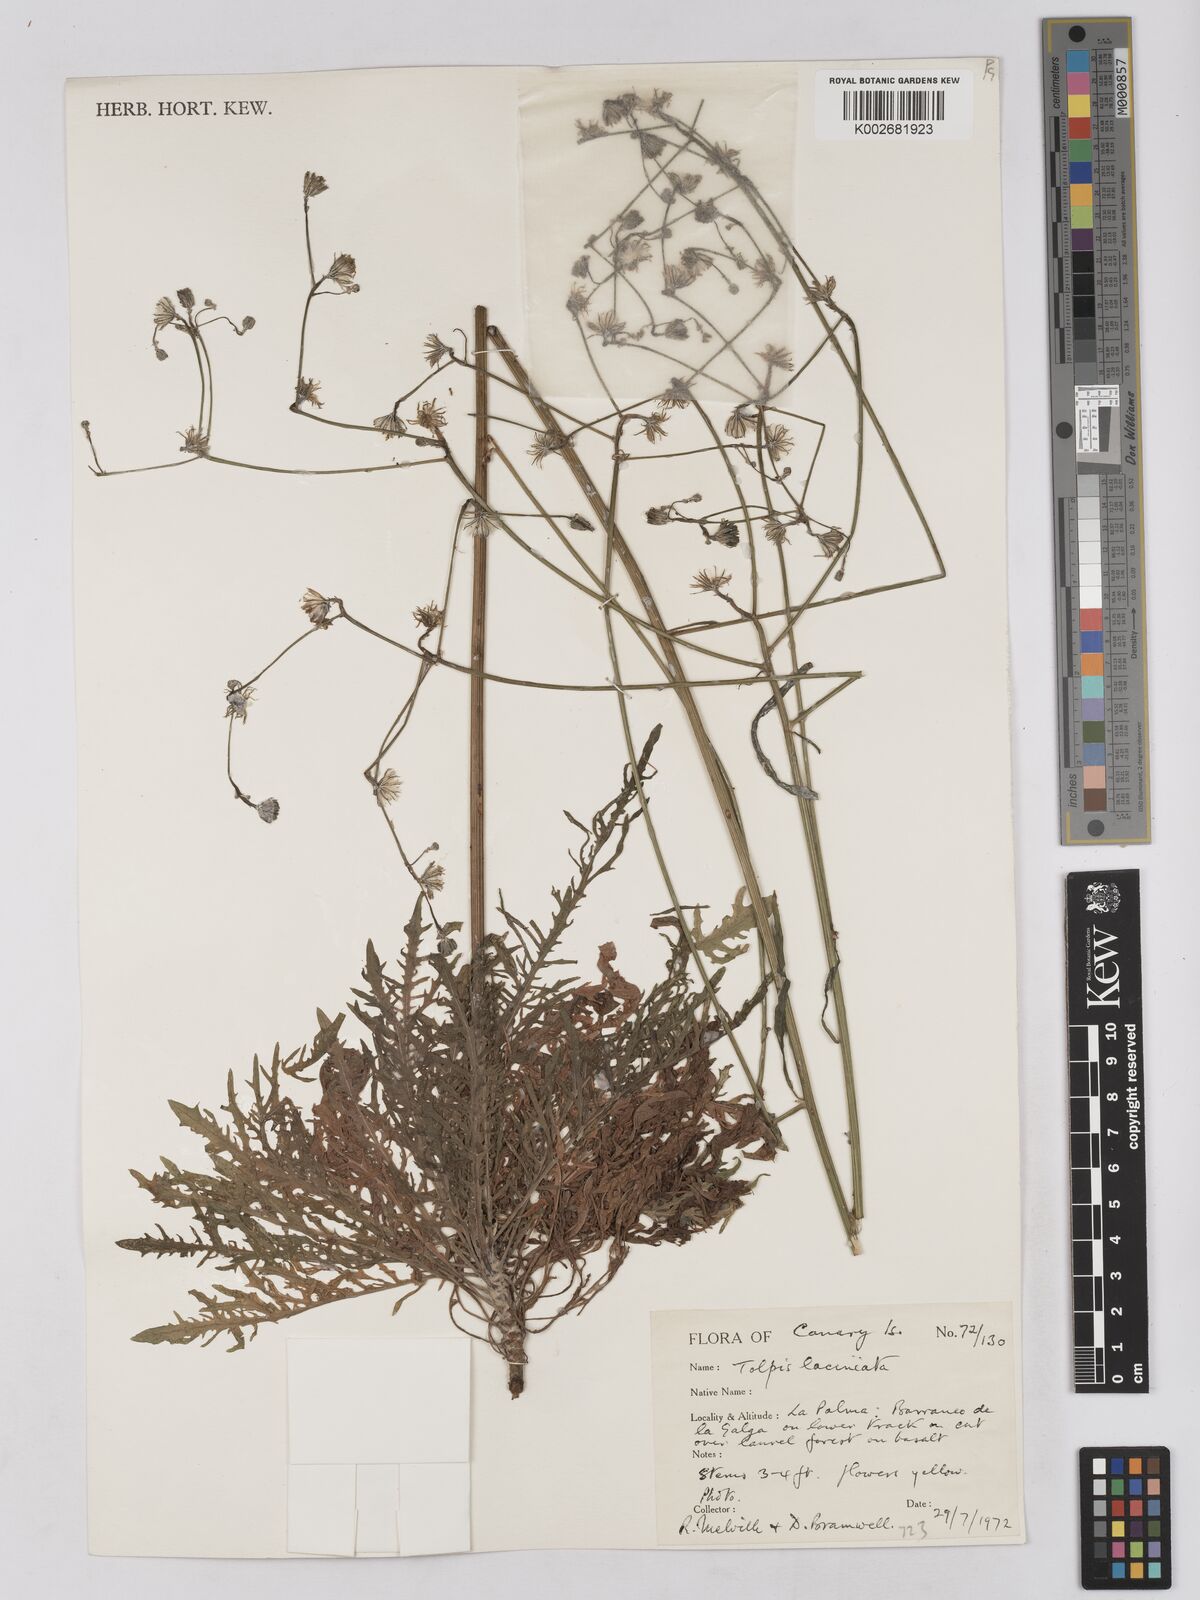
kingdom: Plantae
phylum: Tracheophyta
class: Magnoliopsida
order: Asterales
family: Asteraceae
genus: Tolpis
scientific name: Tolpis laciniata
